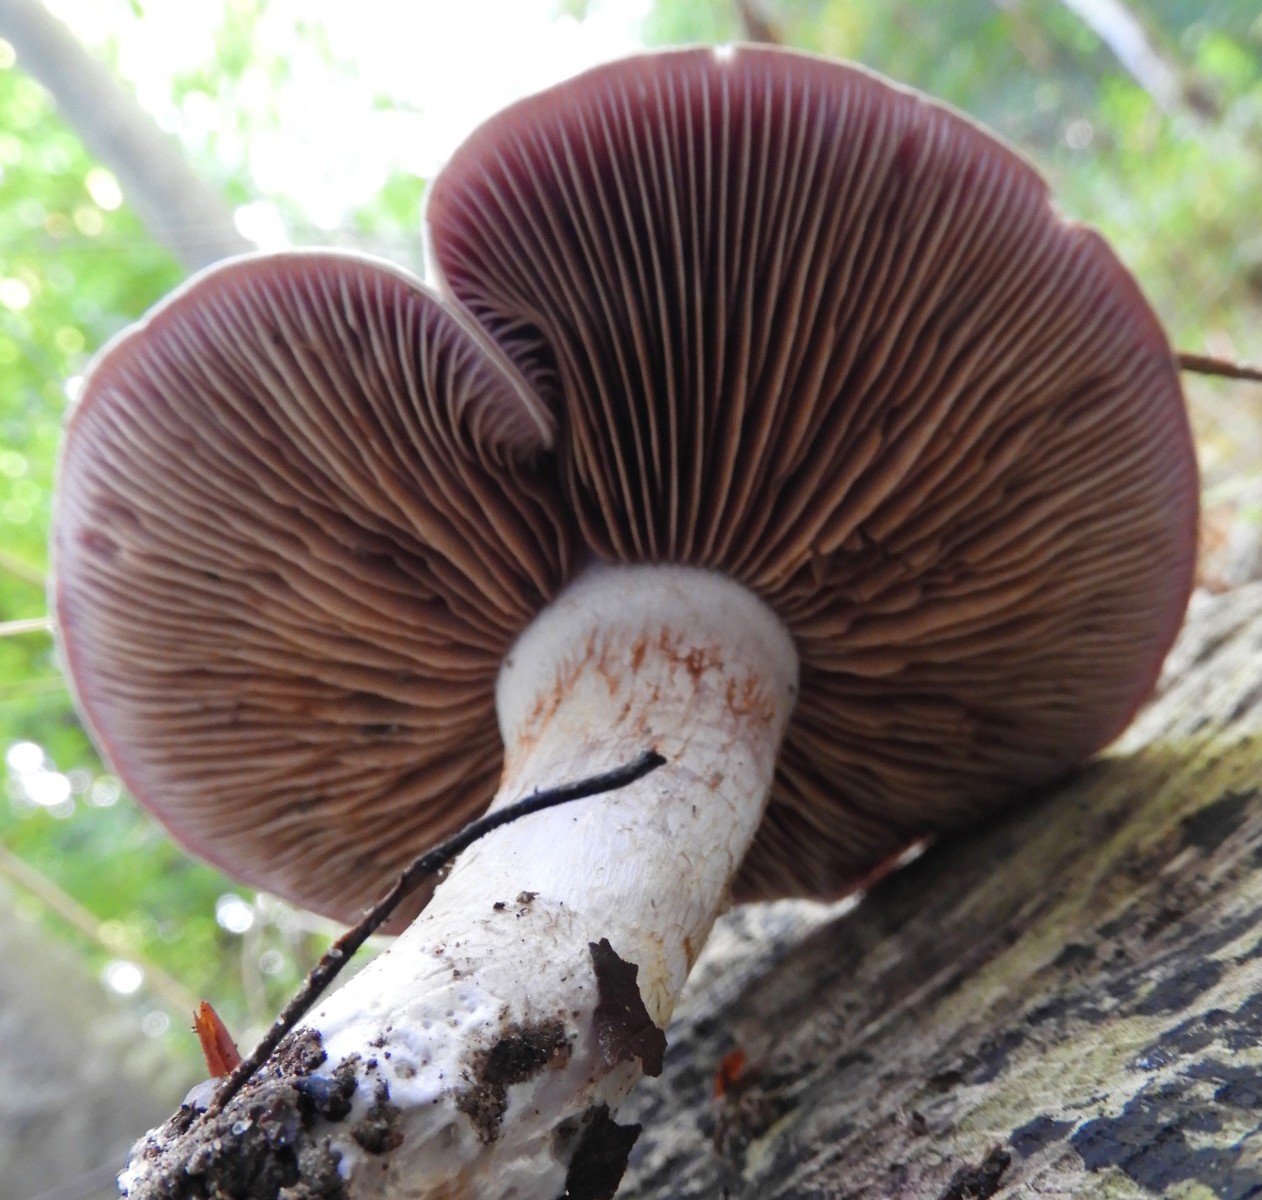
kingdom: Fungi
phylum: Basidiomycota
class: Agaricomycetes
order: Agaricales
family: Cortinariaceae
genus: Cortinarius
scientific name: Cortinarius largus
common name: violetrandet slørhat
